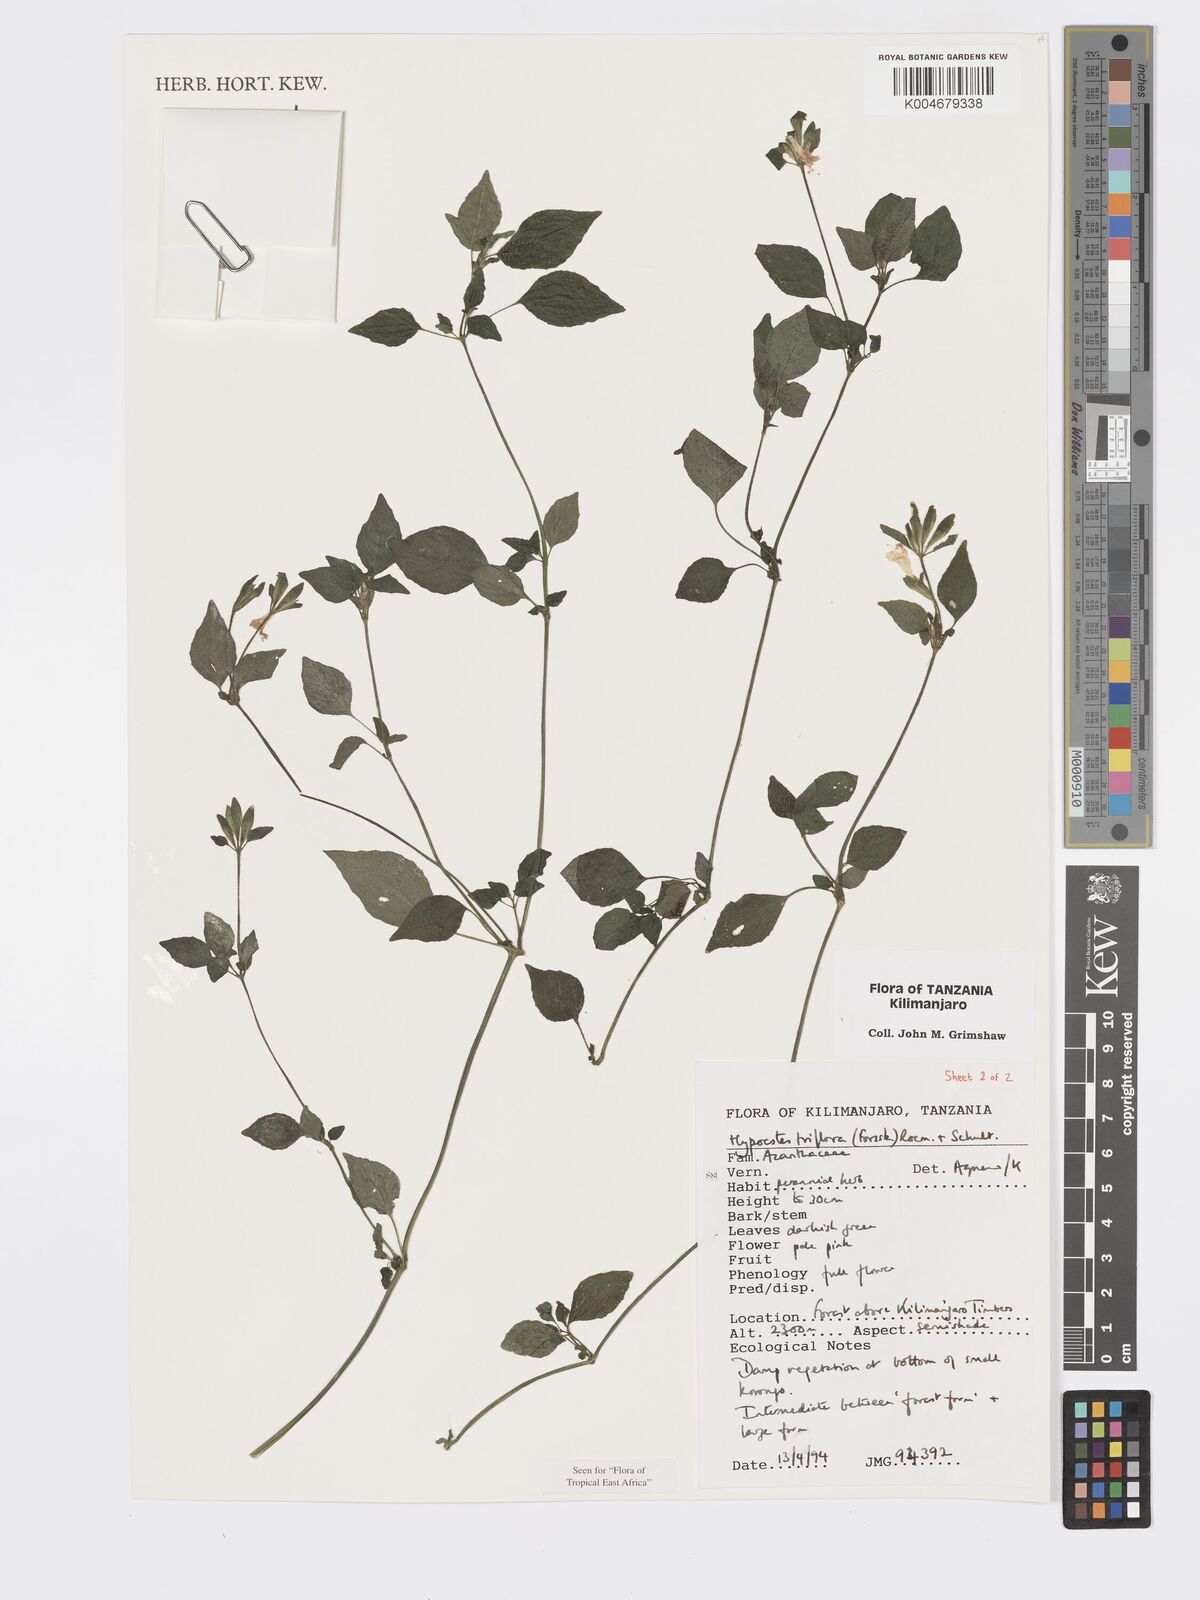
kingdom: Plantae
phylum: Tracheophyta
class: Magnoliopsida
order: Lamiales
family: Acanthaceae
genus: Hypoestes
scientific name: Hypoestes triflora
